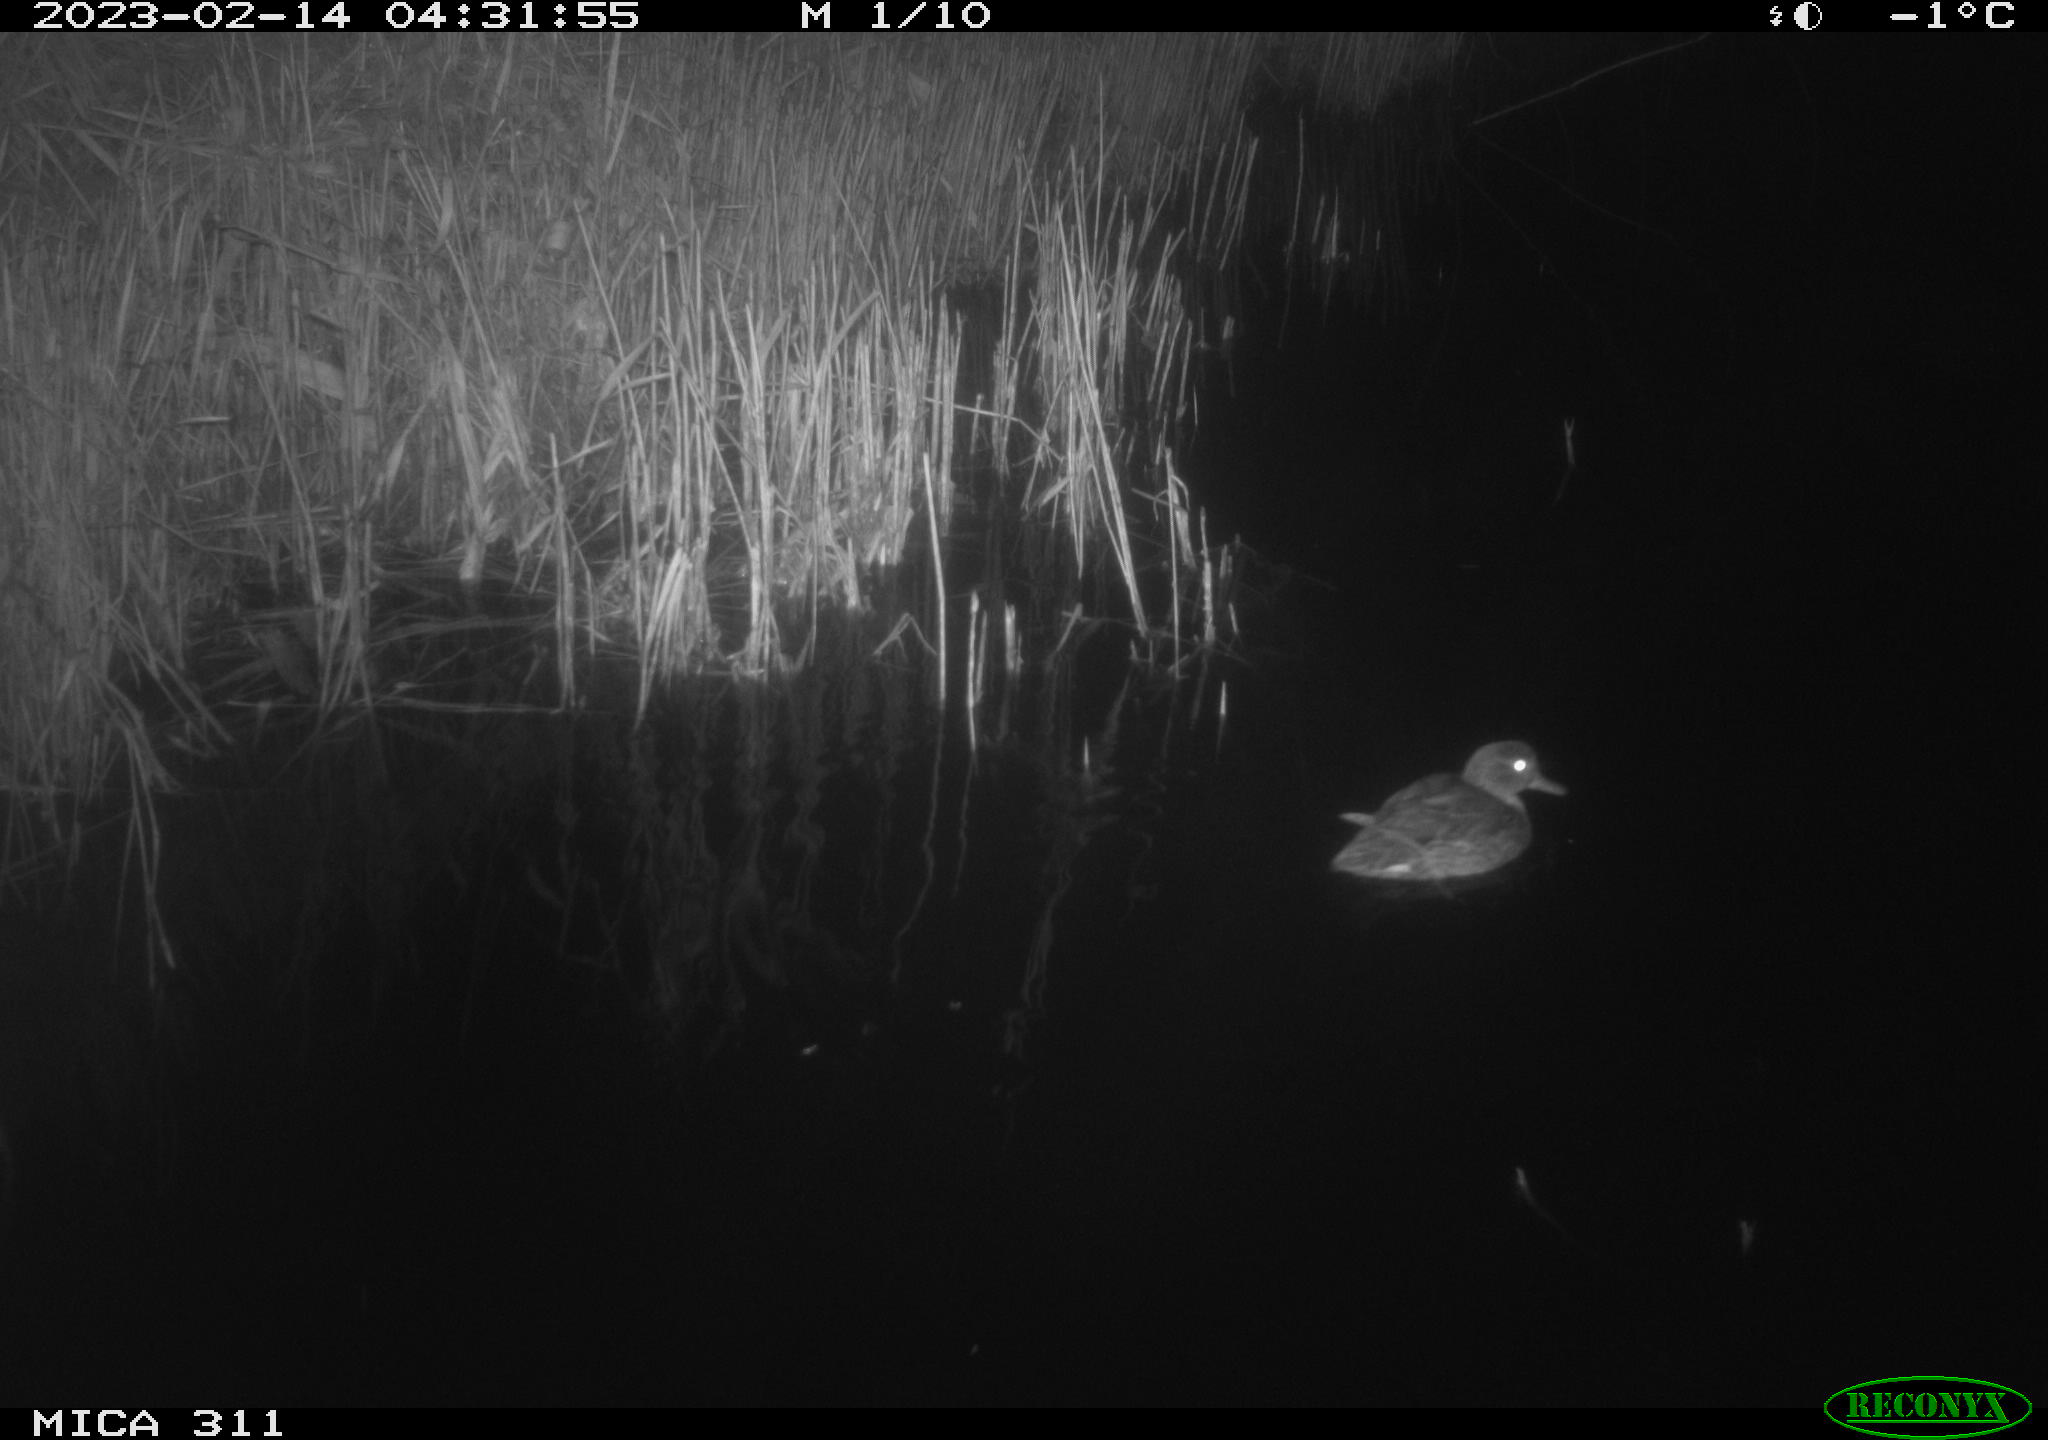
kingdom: Animalia
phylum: Chordata
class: Aves
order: Gruiformes
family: Rallidae
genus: Fulica
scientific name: Fulica atra
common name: Eurasian coot
